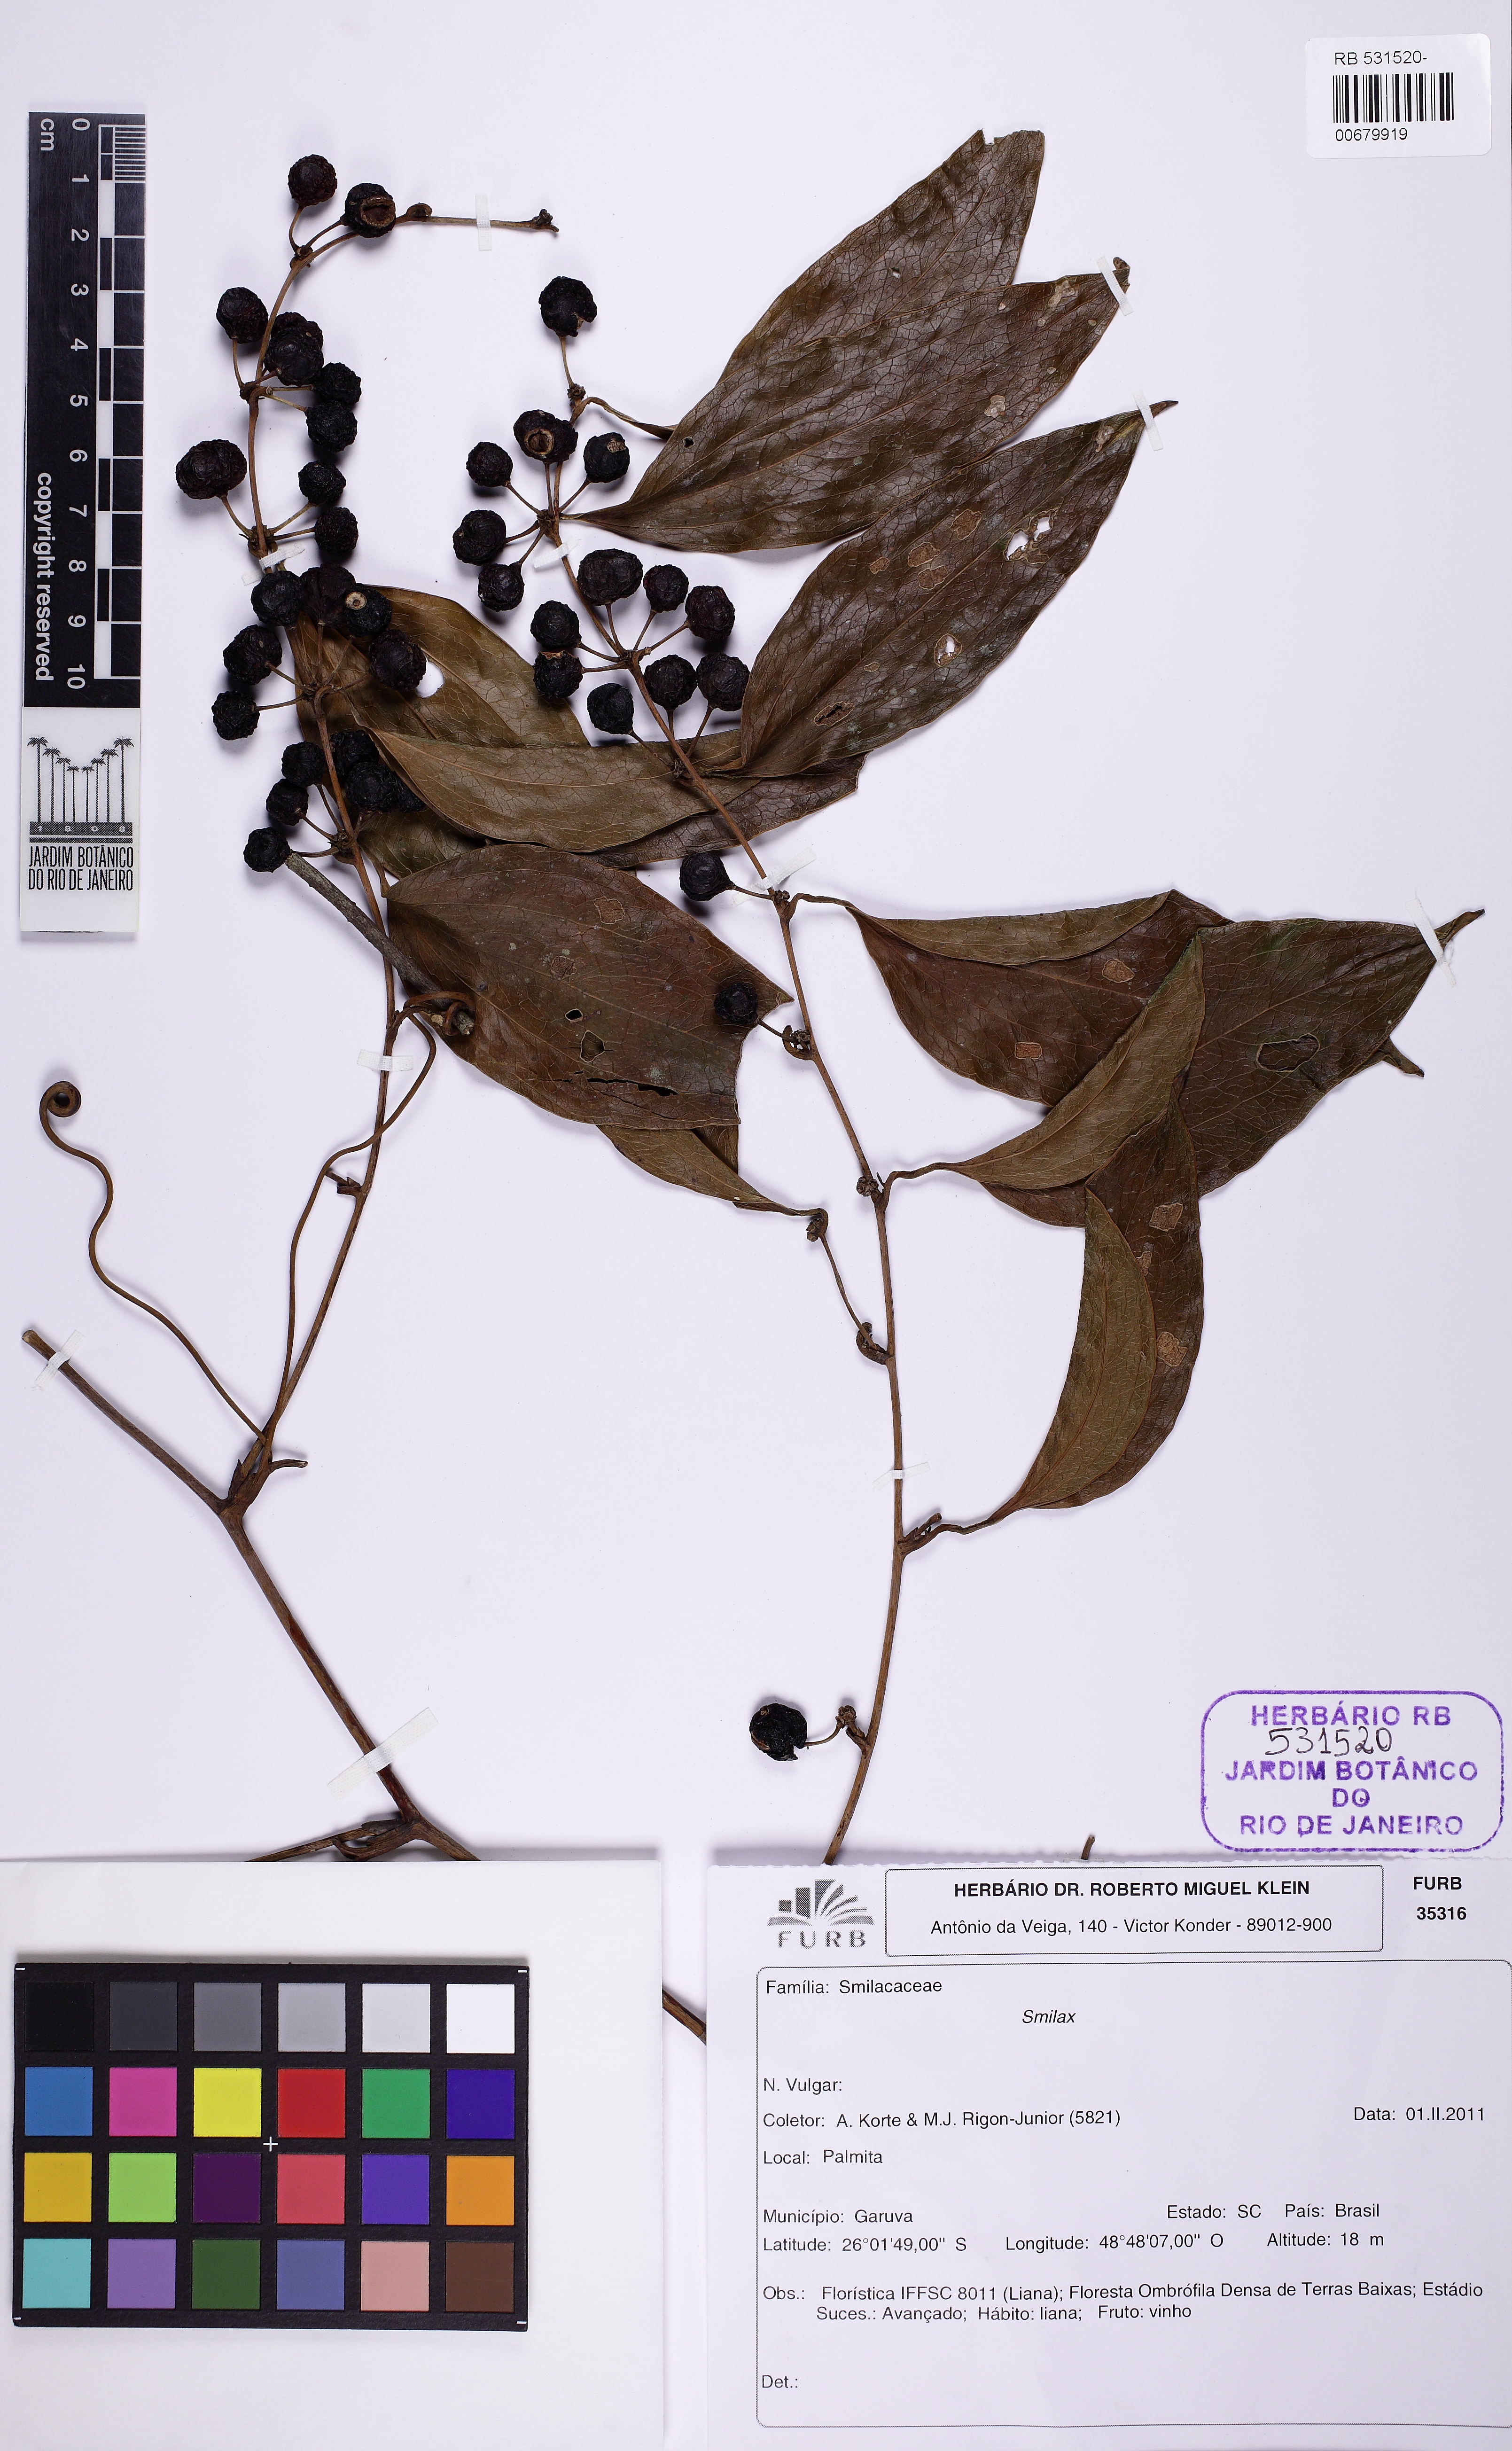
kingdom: Plantae
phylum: Tracheophyta
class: Liliopsida
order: Liliales
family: Smilacaceae
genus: Smilax
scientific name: Smilax
